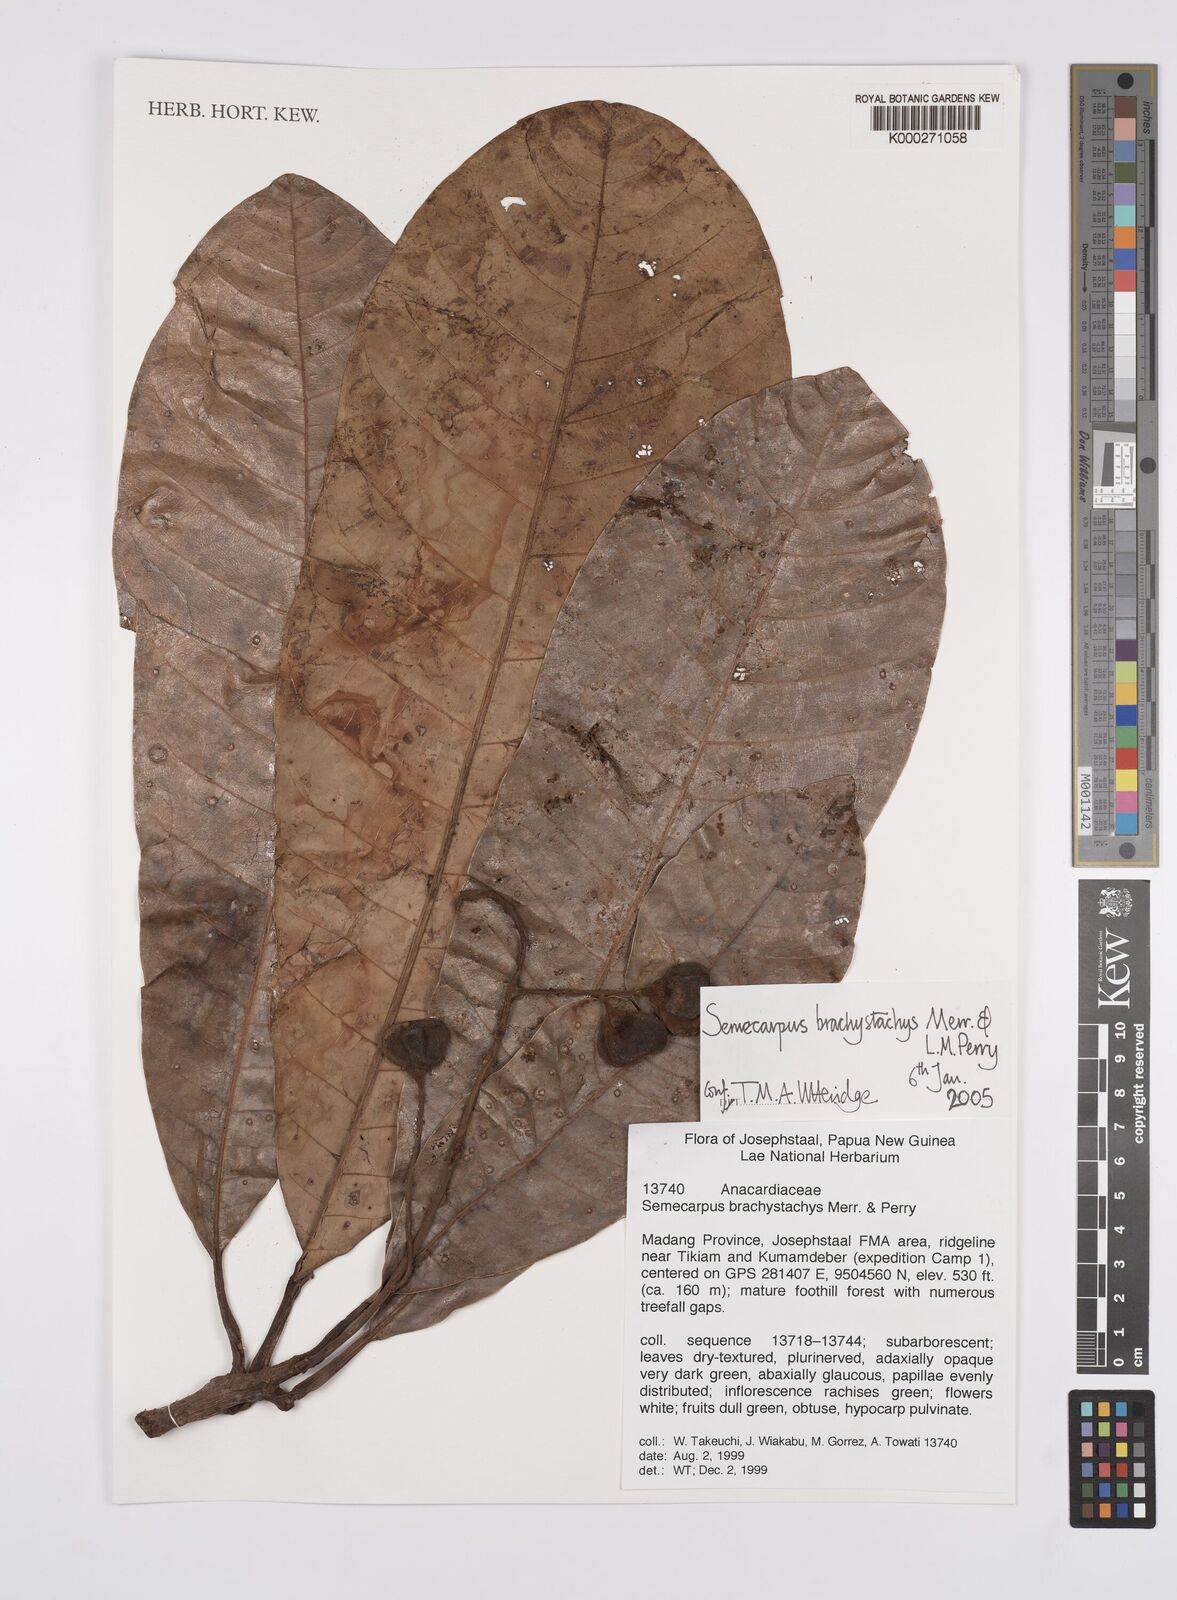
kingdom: Plantae
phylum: Tracheophyta
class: Magnoliopsida
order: Sapindales
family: Anacardiaceae
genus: Semecarpus
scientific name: Semecarpus brachystachys
